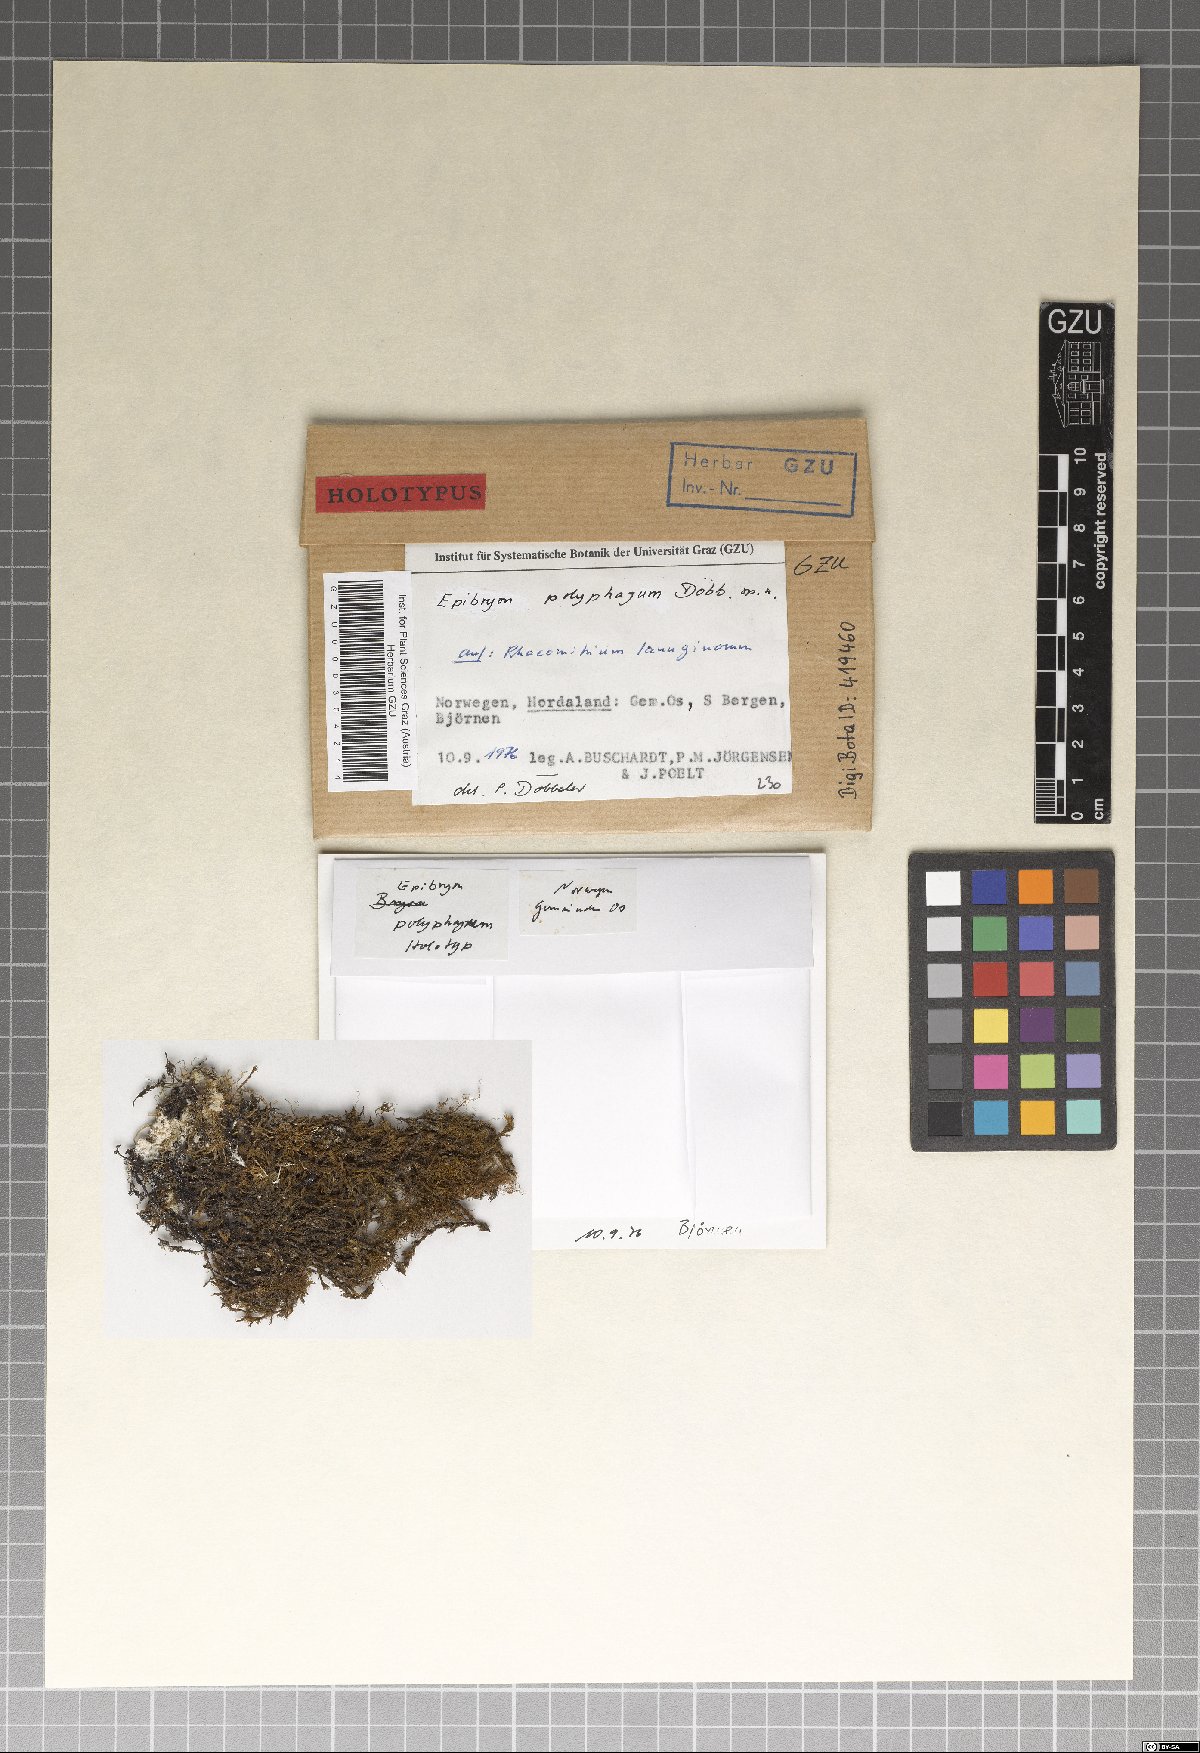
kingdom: Fungi
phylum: Ascomycota
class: Eurotiomycetes
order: Chaetothyriales
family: Epibryaceae
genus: Epibryon
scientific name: Epibryon polyphagum
